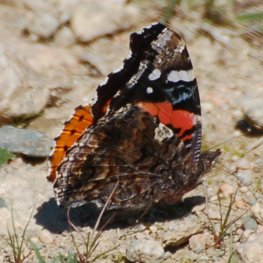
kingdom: Animalia
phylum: Arthropoda
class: Insecta
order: Lepidoptera
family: Nymphalidae
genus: Vanessa
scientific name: Vanessa atalanta
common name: Red Admiral
